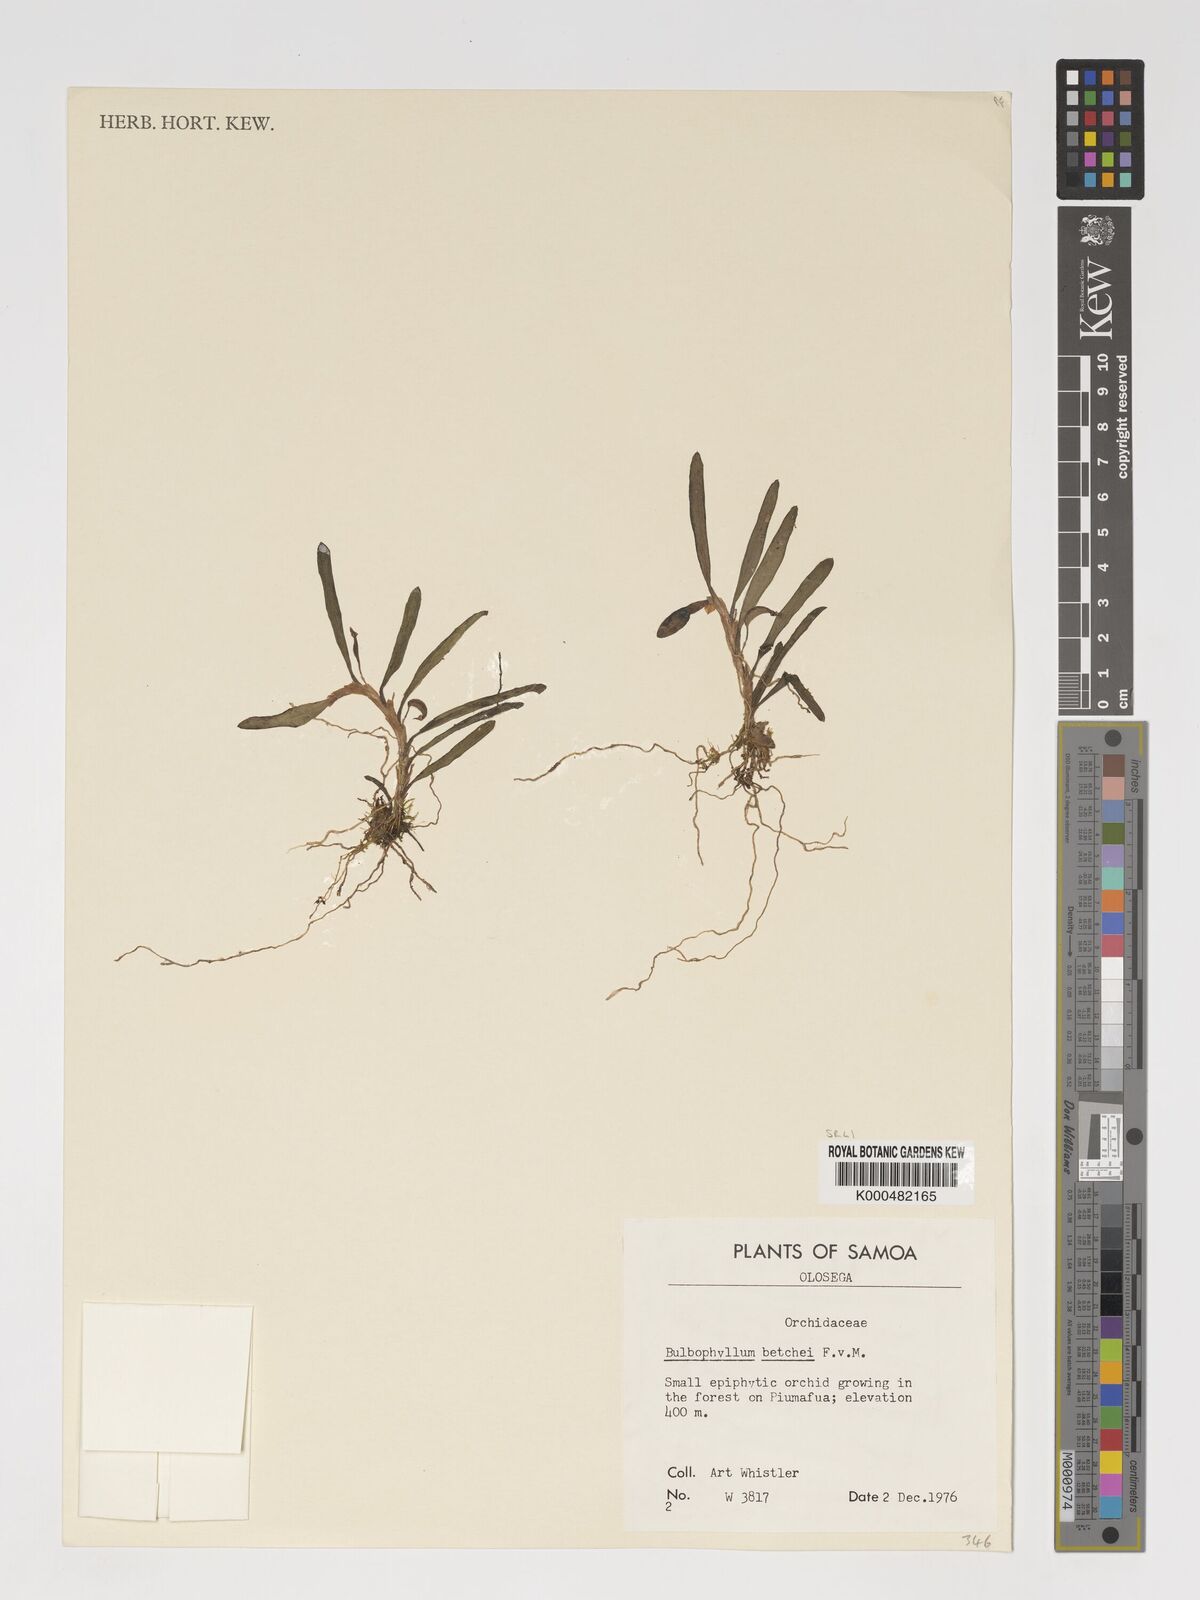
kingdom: Plantae
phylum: Tracheophyta
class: Liliopsida
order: Asparagales
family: Orchidaceae
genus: Bulbophyllum
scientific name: Bulbophyllum betchei
